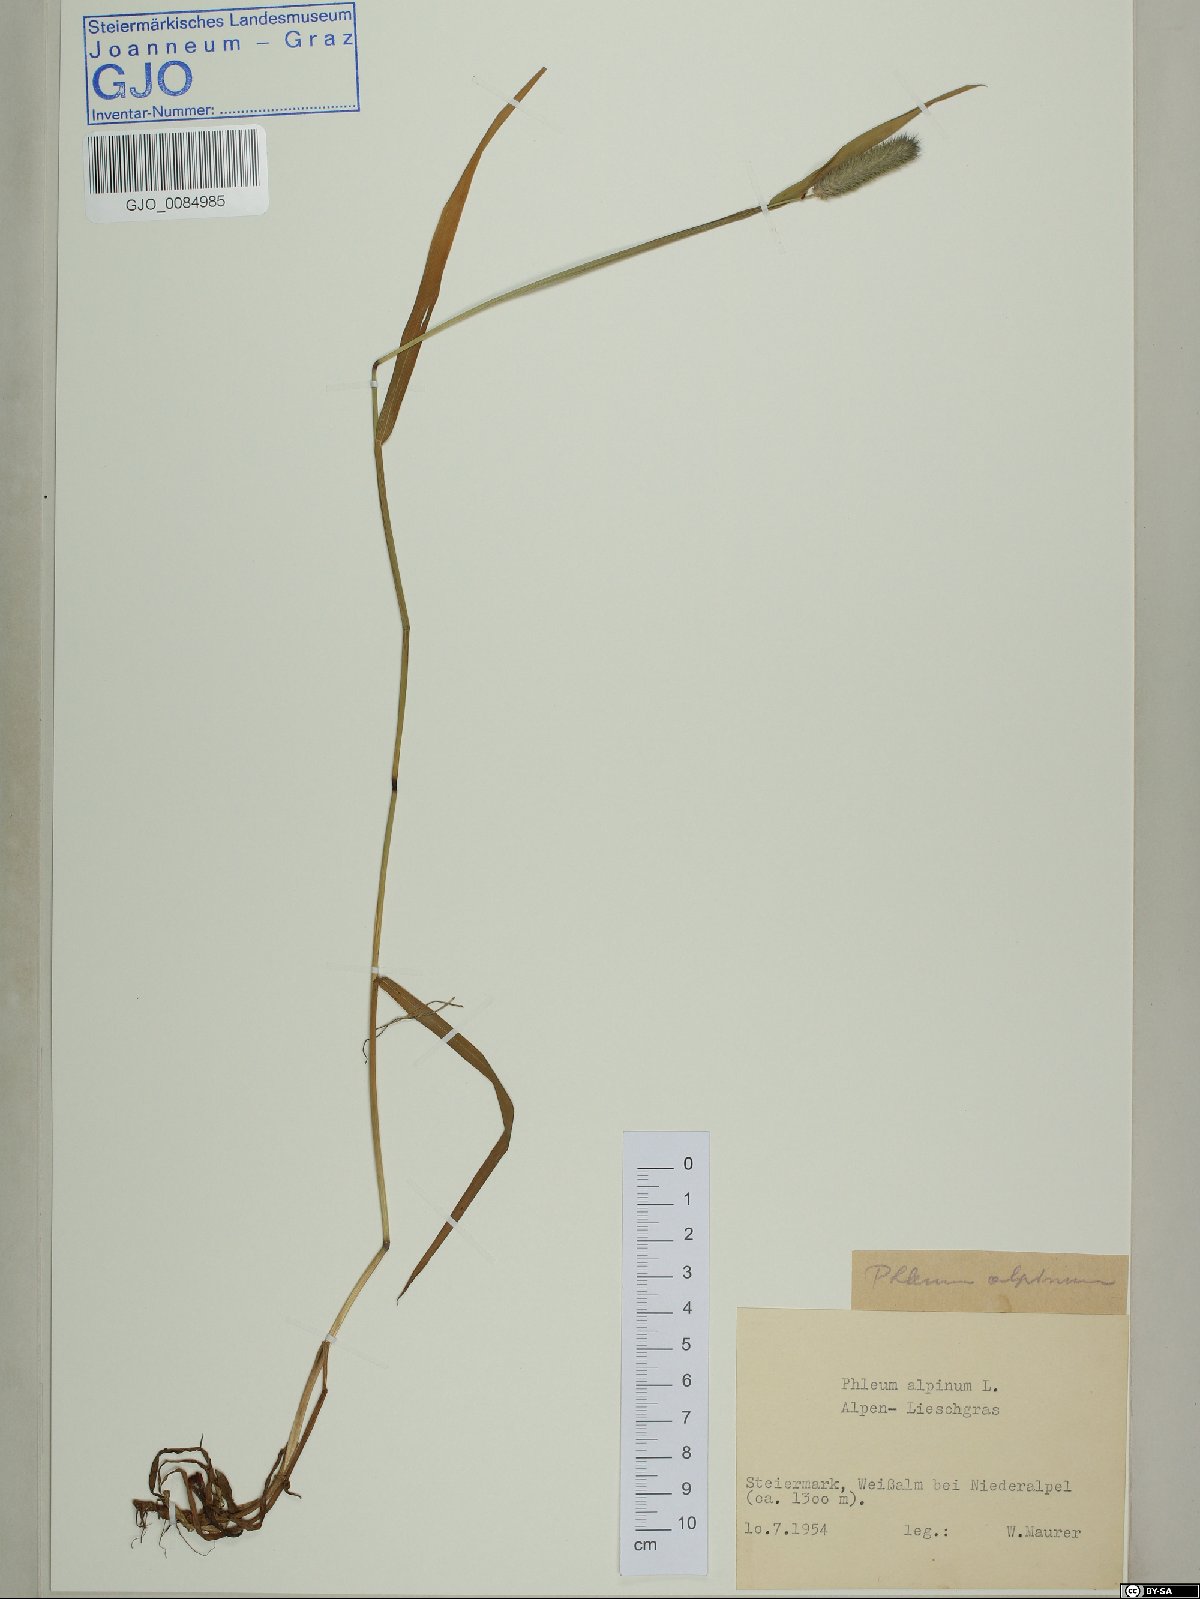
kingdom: Plantae
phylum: Tracheophyta
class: Liliopsida
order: Poales
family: Poaceae
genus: Phleum
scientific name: Phleum alpinum
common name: Alpine cat's-tail
